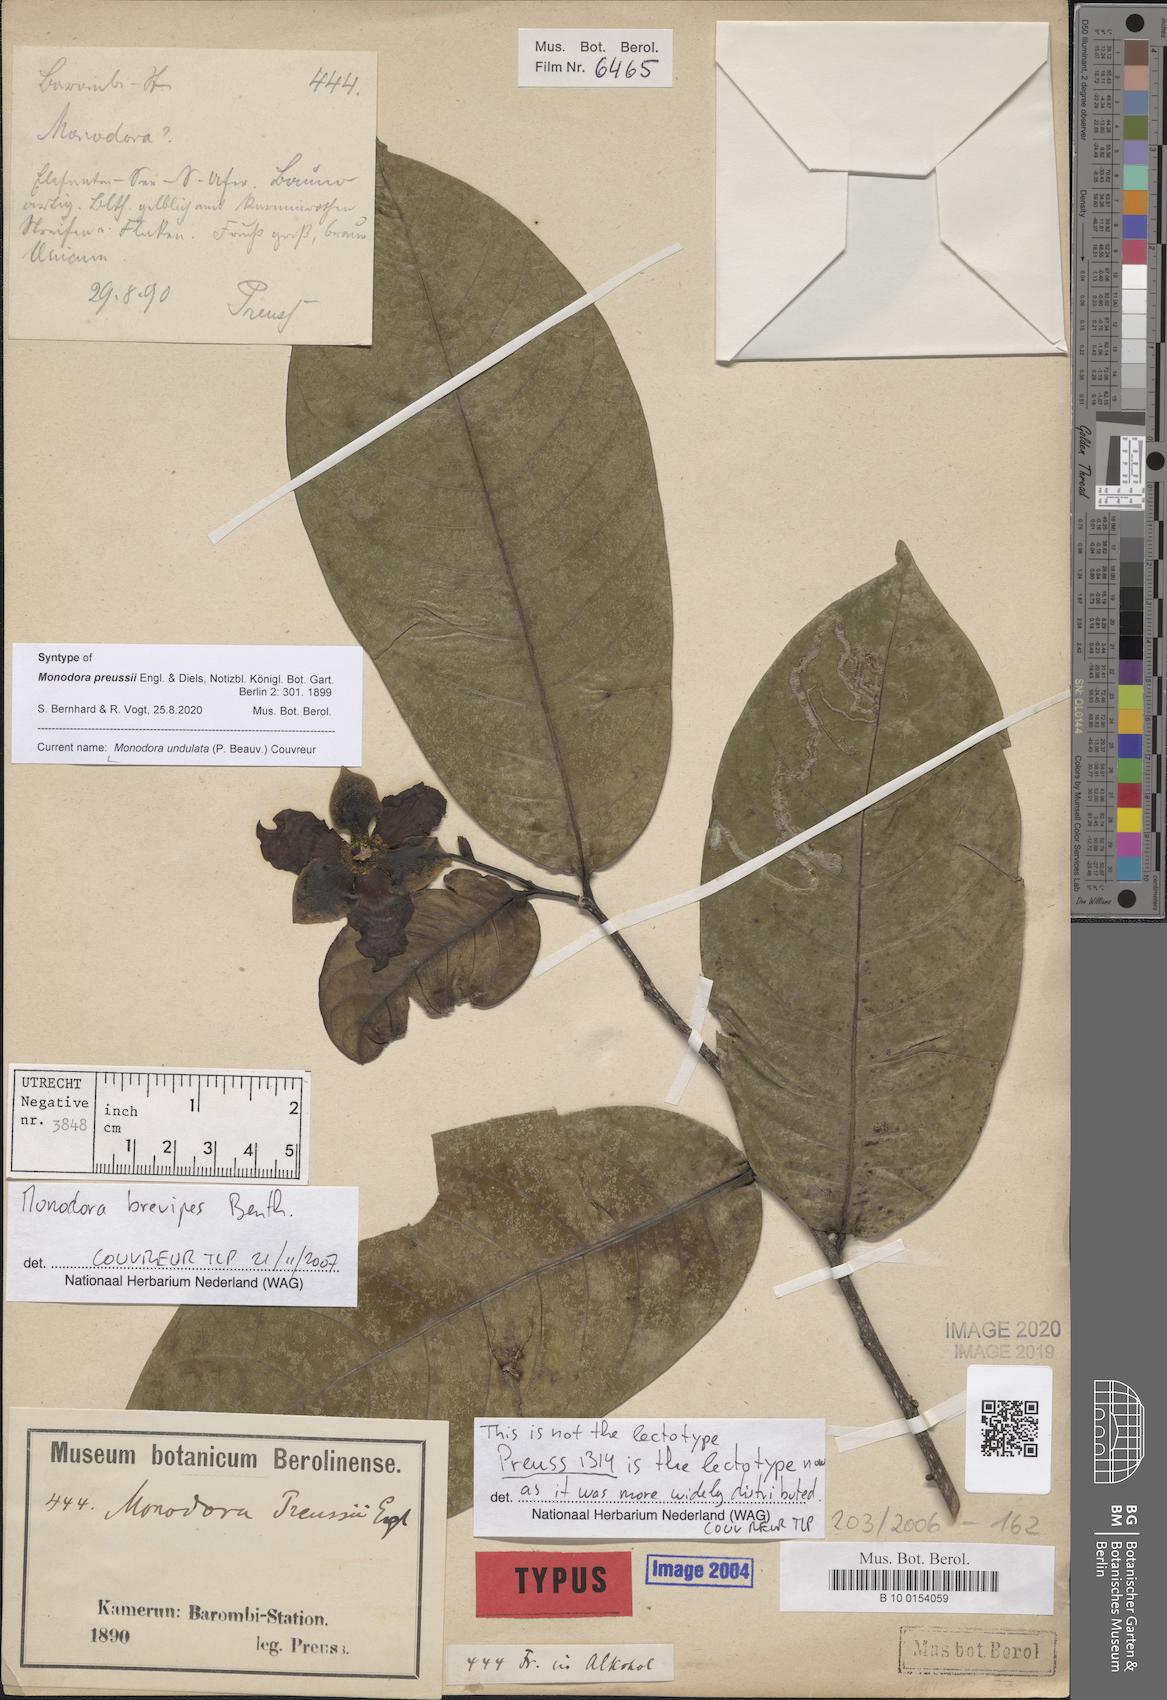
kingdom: Plantae
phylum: Tracheophyta
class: Magnoliopsida
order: Magnoliales
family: Annonaceae
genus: Monodora
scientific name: Monodora undulata
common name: Yellow-flower-nutmeg
